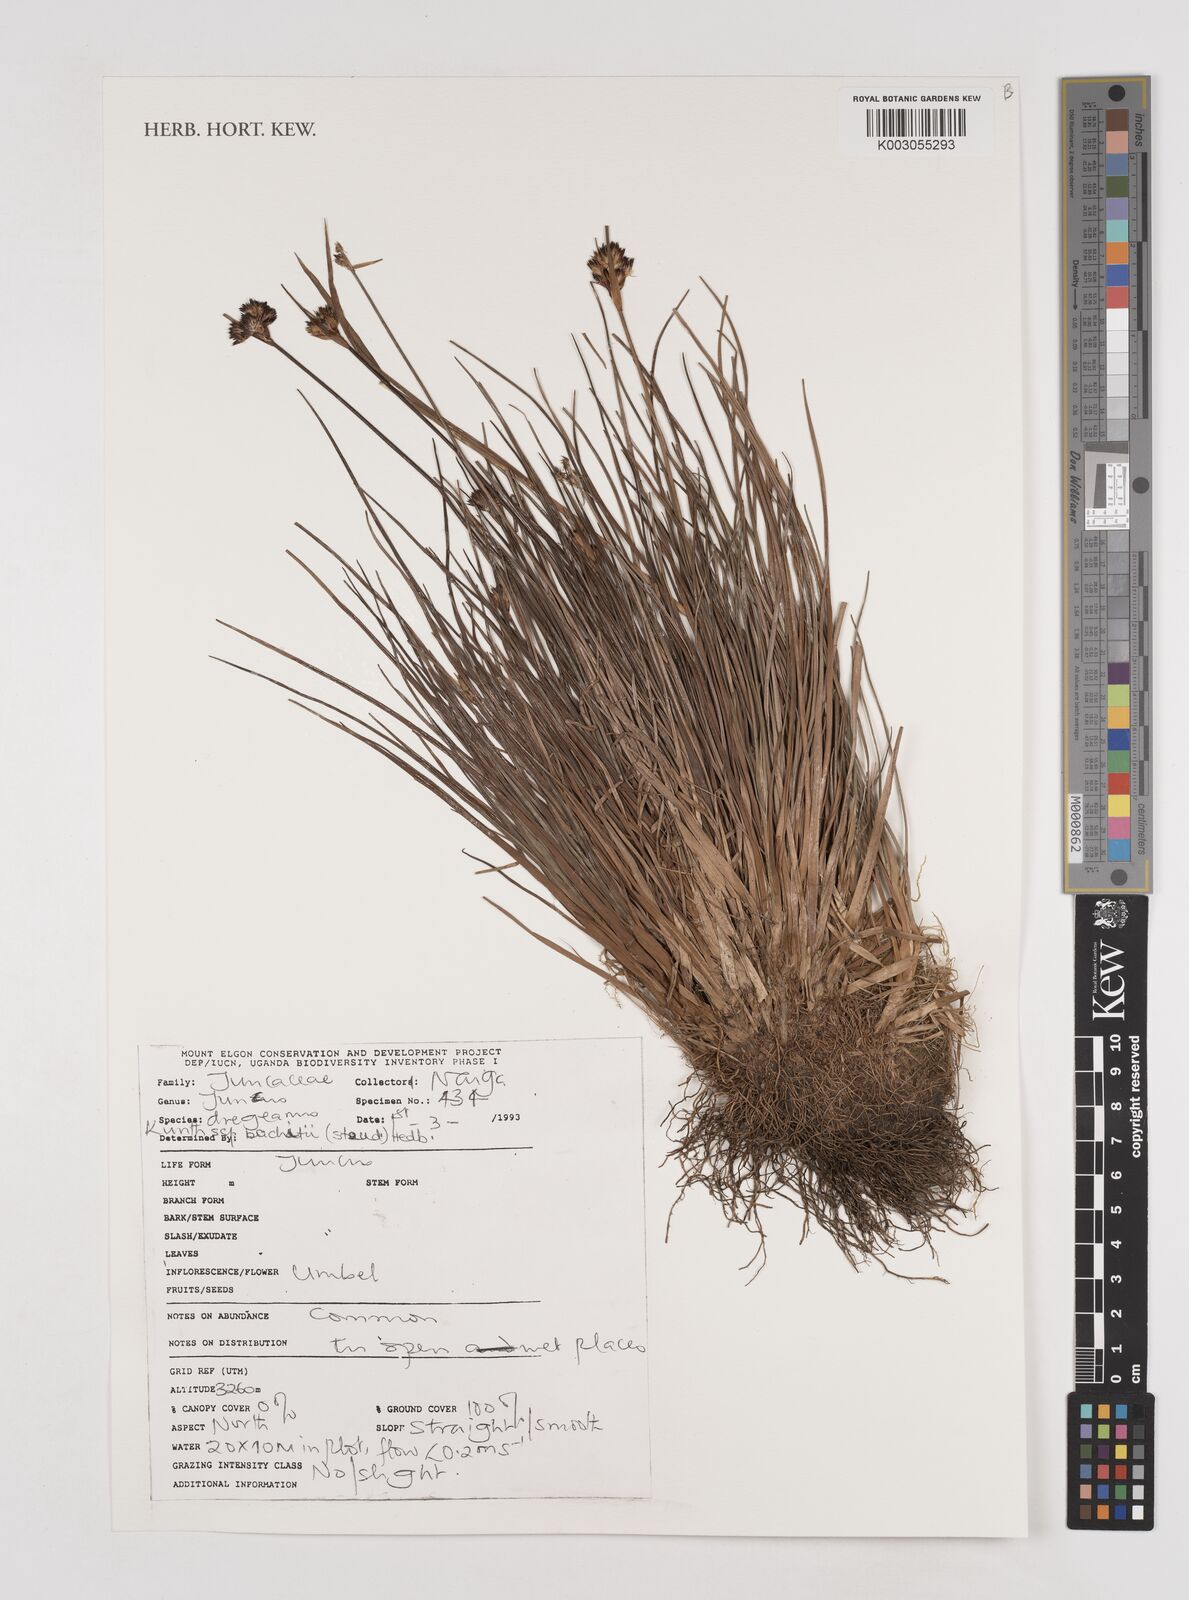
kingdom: Plantae
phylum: Tracheophyta
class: Liliopsida
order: Poales
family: Juncaceae
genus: Juncus
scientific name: Juncus dregeanus
